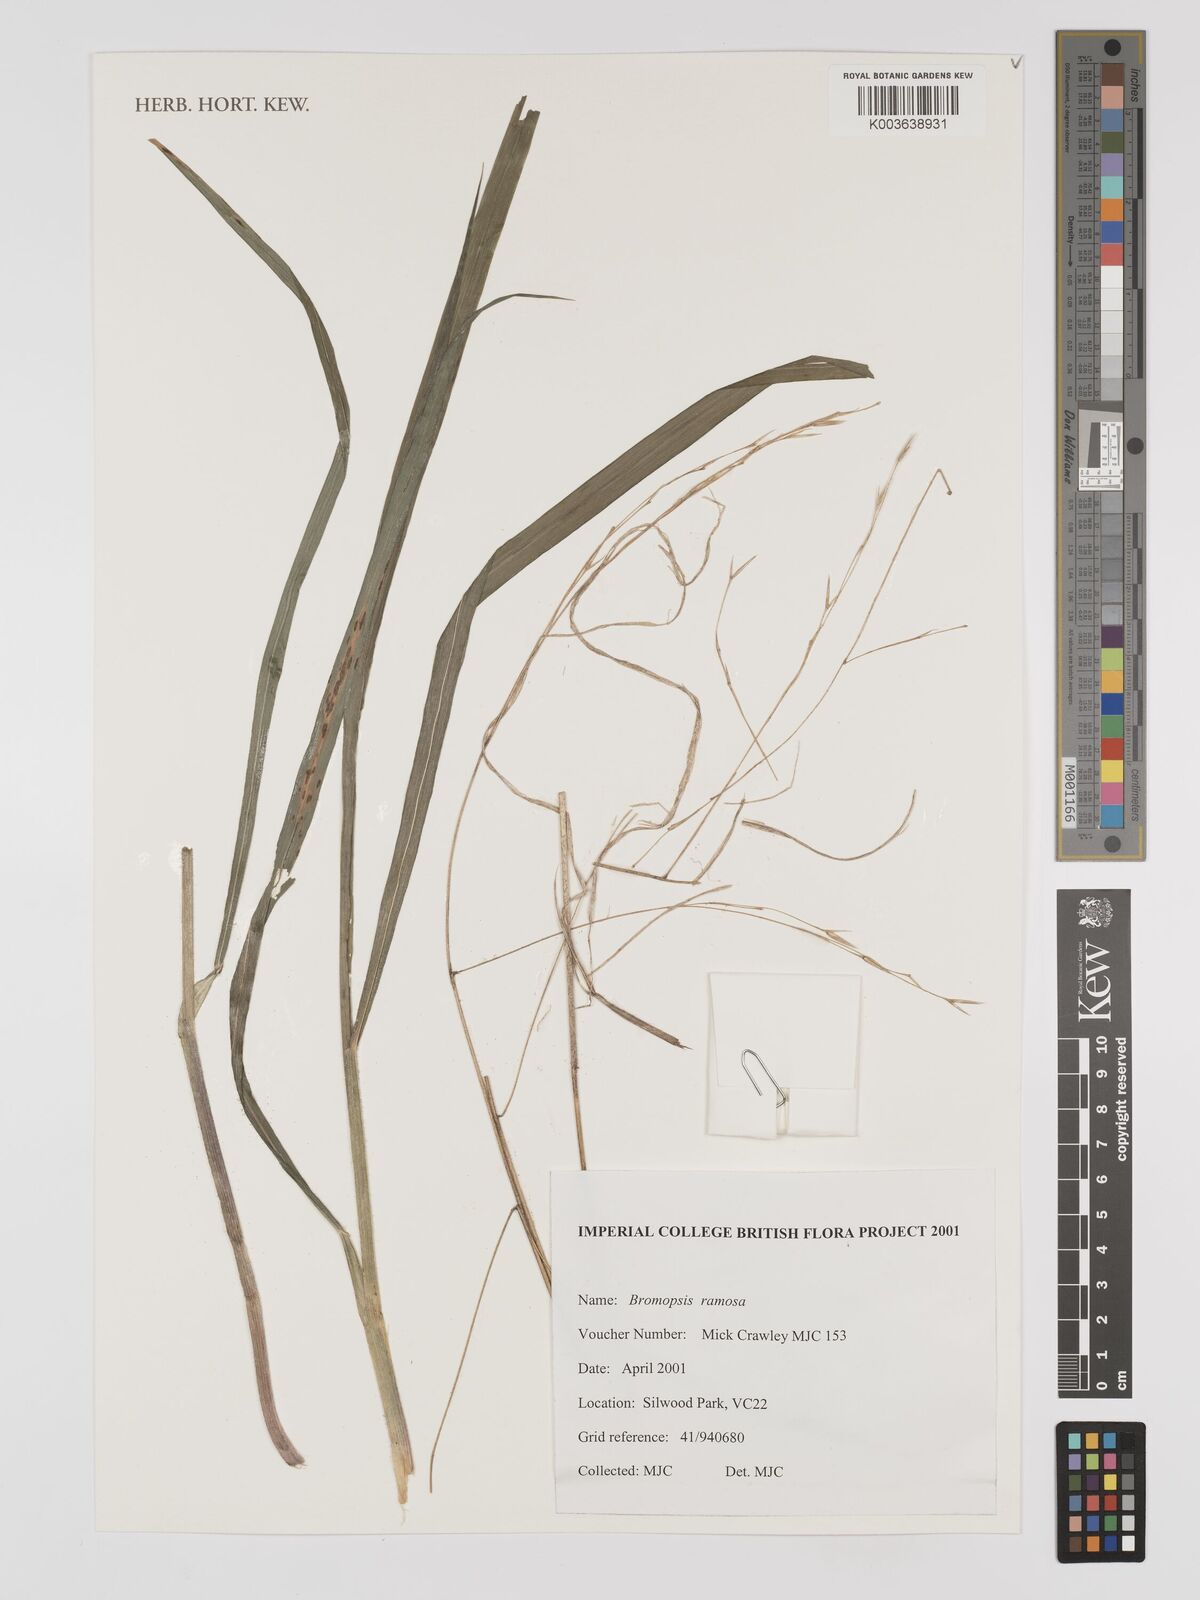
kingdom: Plantae
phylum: Tracheophyta
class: Liliopsida
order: Poales
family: Poaceae
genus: Bromus
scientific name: Bromus ramosus
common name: Hairy brome
